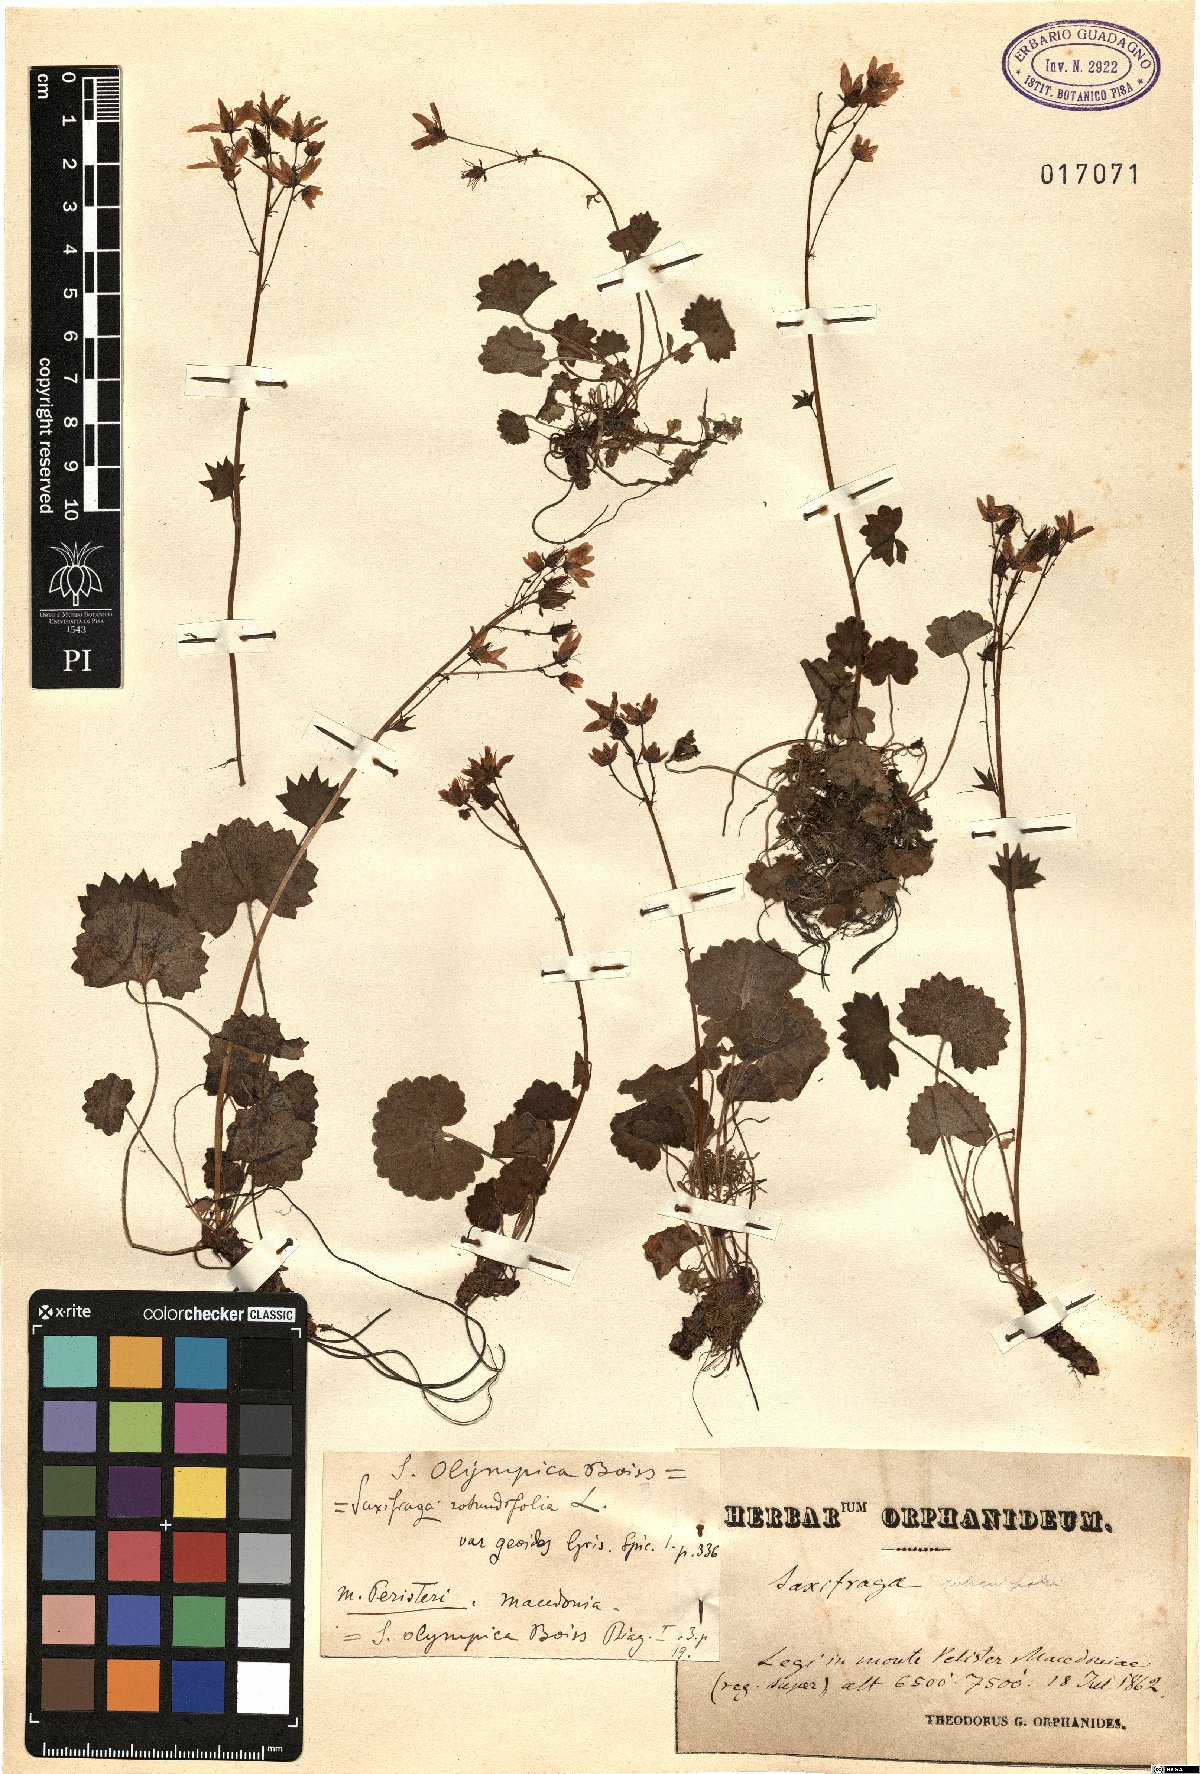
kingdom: Plantae
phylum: Tracheophyta
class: Magnoliopsida
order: Saxifragales
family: Saxifragaceae
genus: Saxifraga
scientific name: Saxifraga rotundifolia
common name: Round-leaved saxifrage
